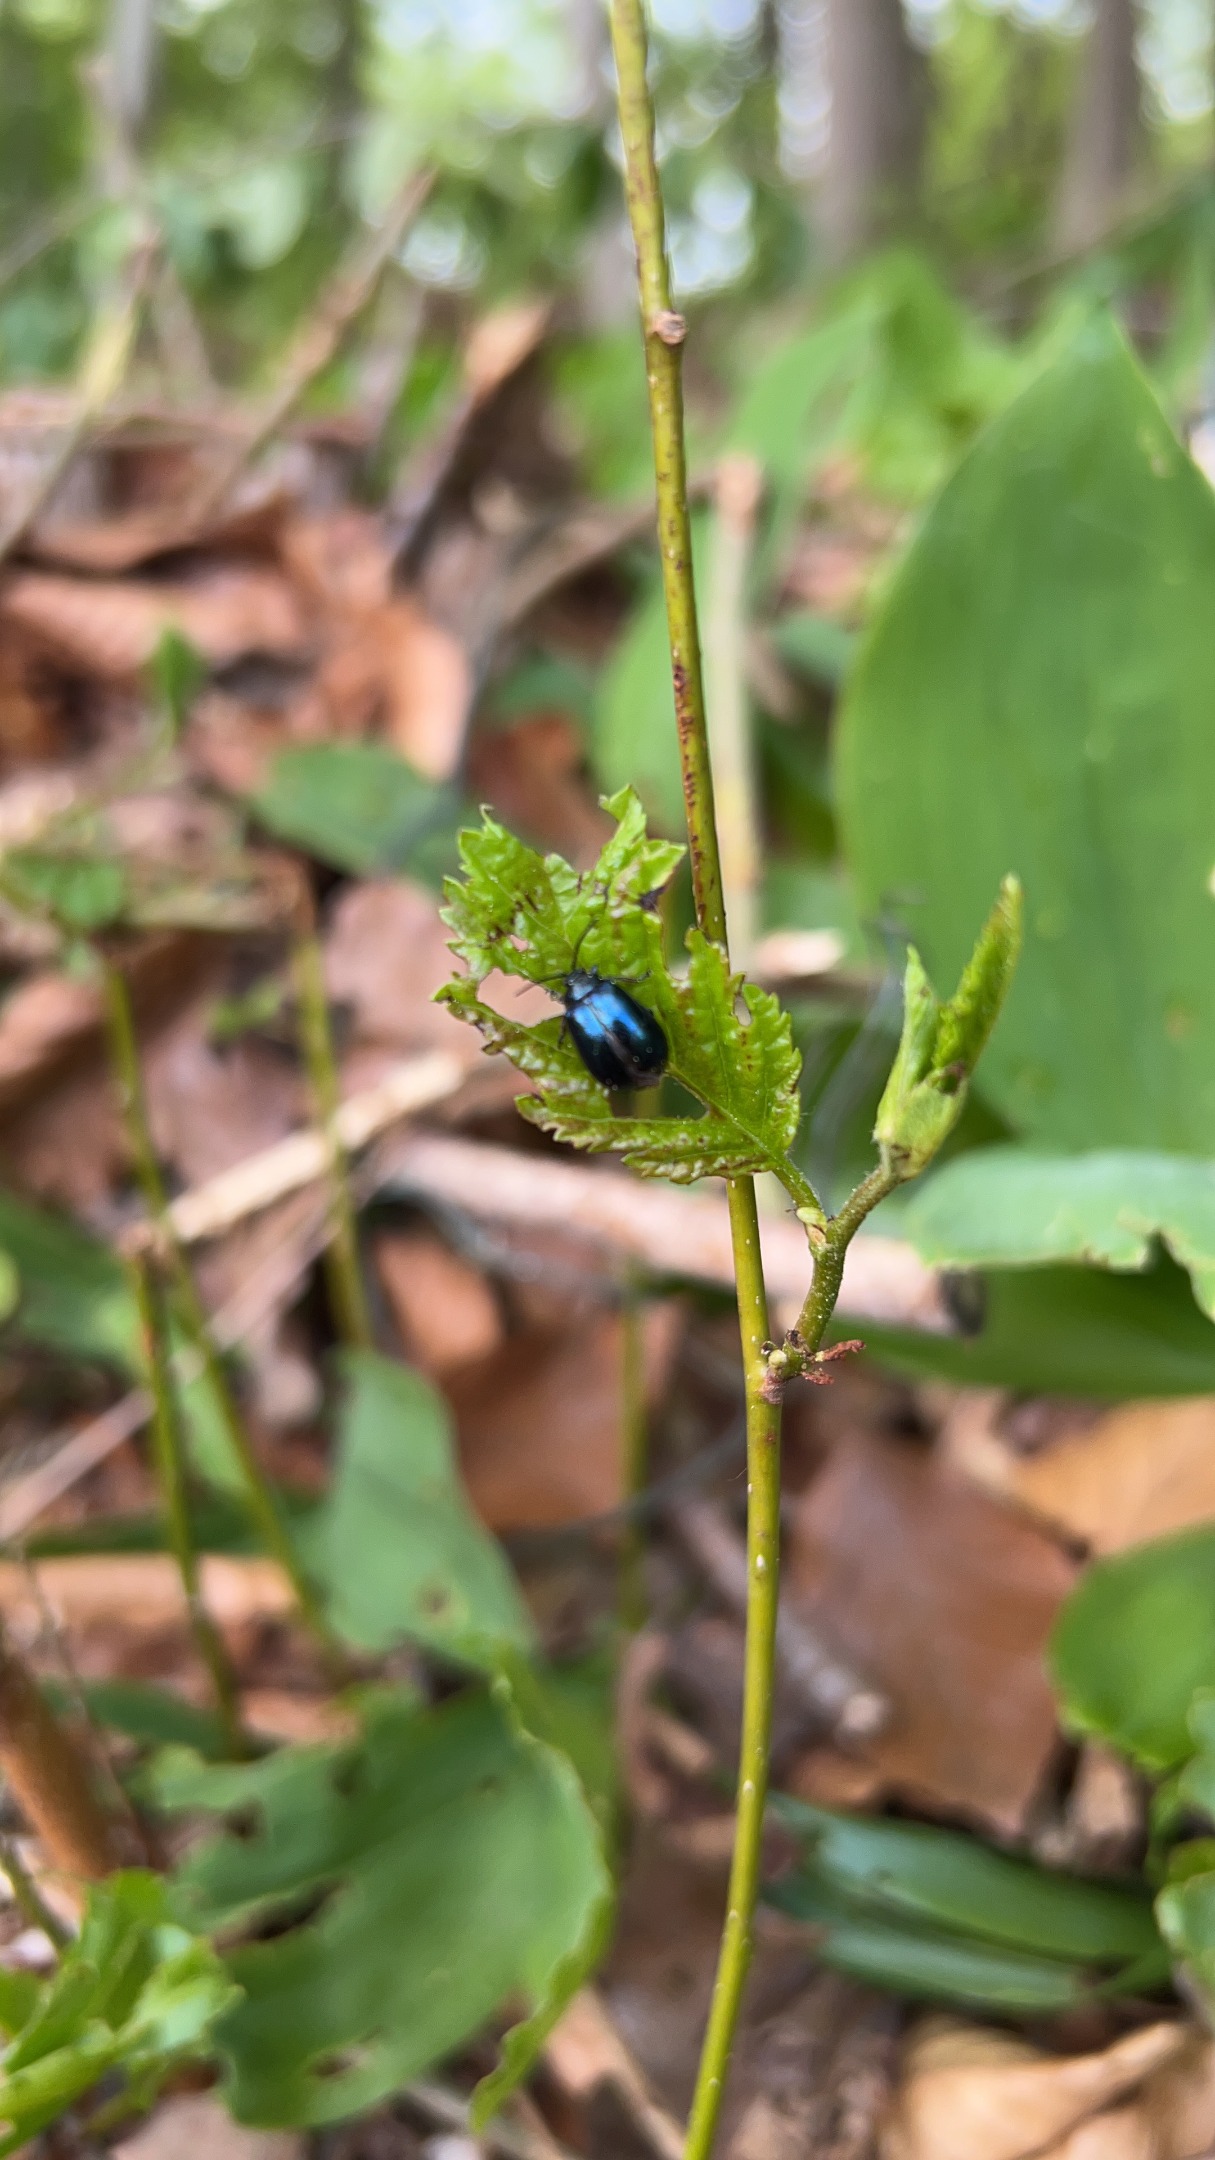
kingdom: Animalia
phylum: Arthropoda
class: Insecta
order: Coleoptera
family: Chrysomelidae
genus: Agelastica
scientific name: Agelastica alni
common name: Ellebladbille
